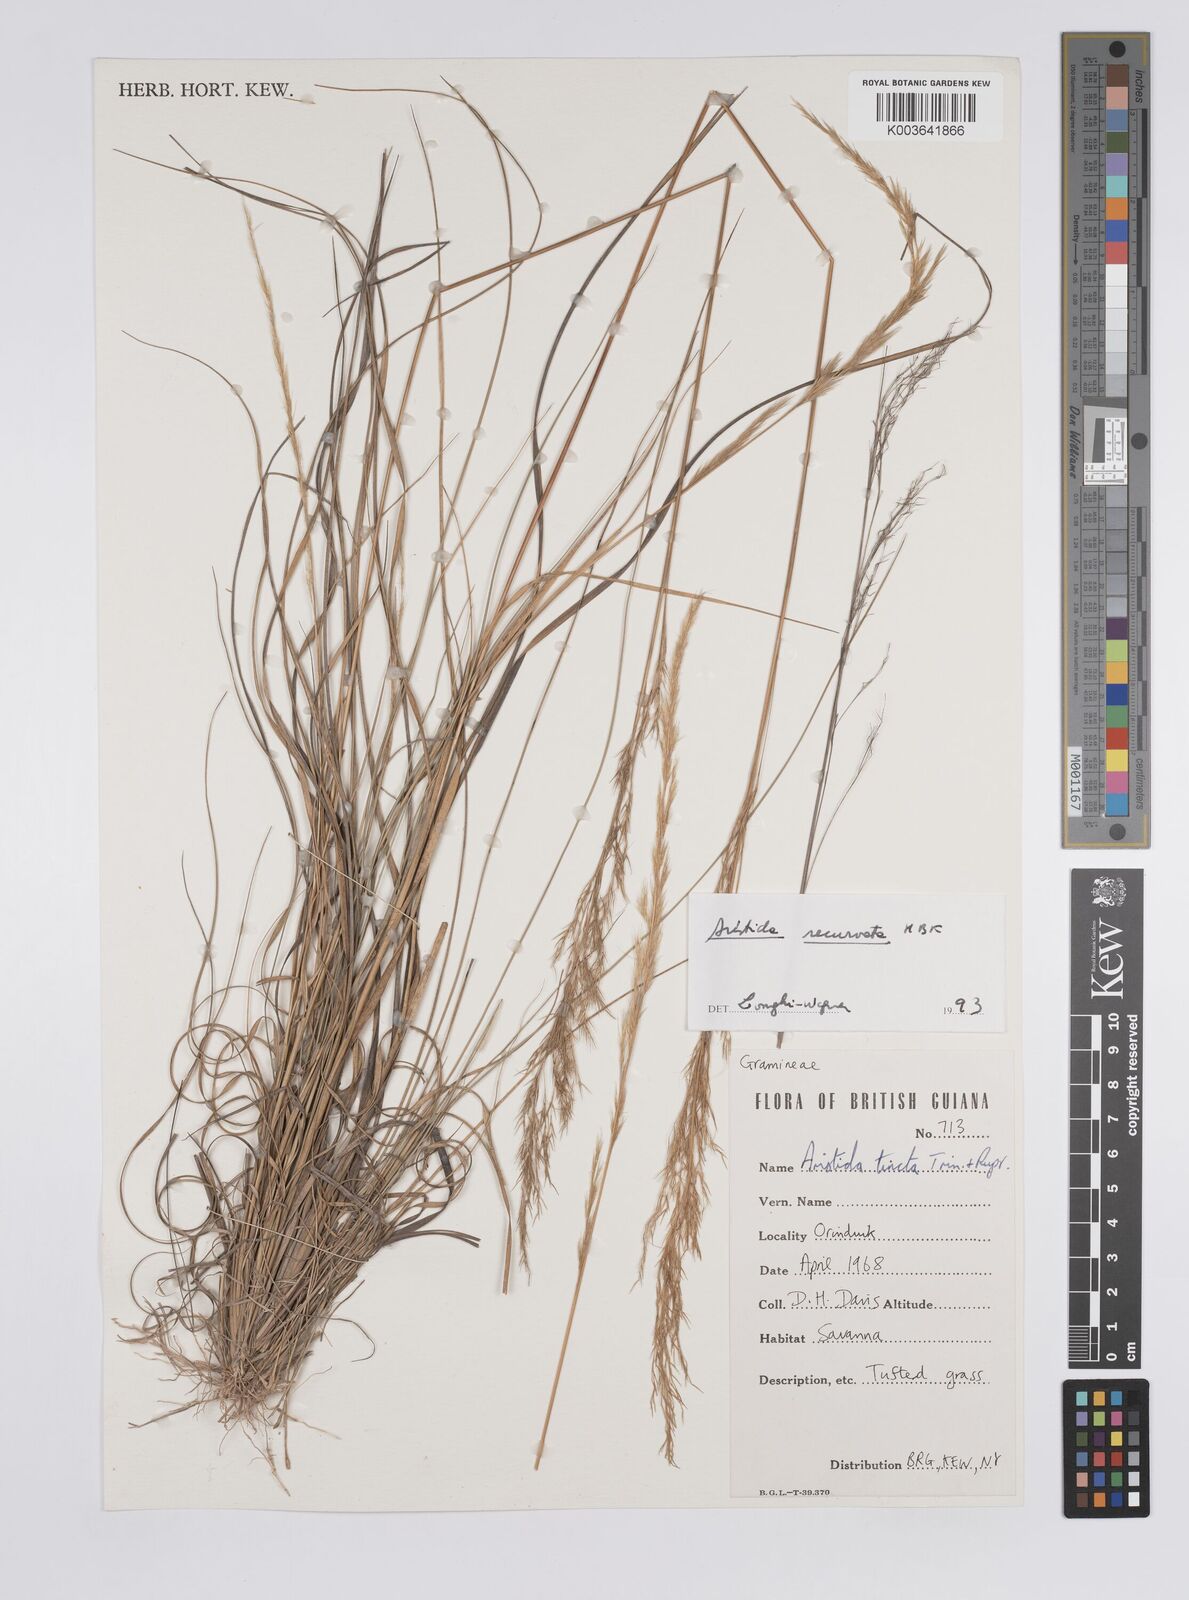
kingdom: Plantae
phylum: Tracheophyta
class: Liliopsida
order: Poales
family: Poaceae
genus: Aristida
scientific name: Aristida recurvata
